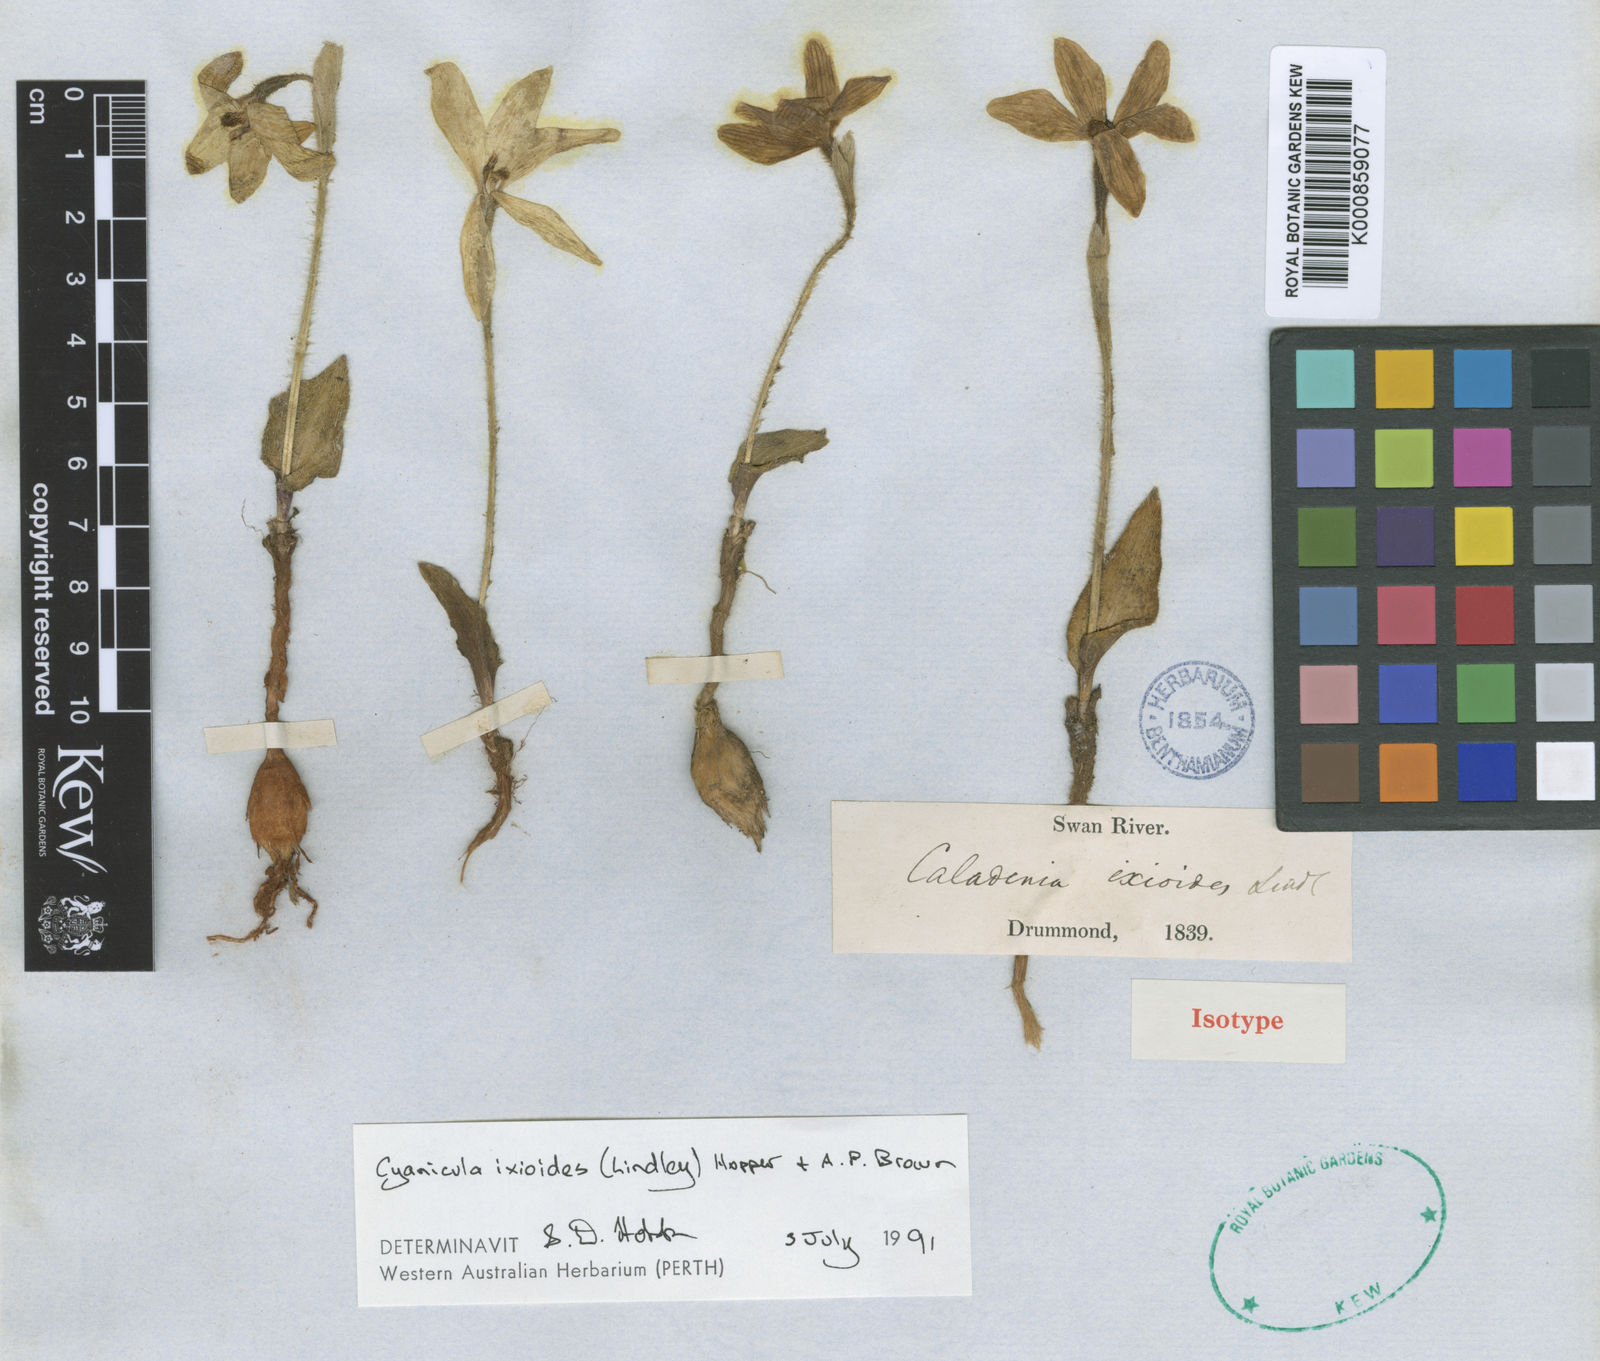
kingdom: Plantae
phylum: Tracheophyta
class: Liliopsida
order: Asparagales
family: Orchidaceae
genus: Caladenia
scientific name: Caladenia ixioides
